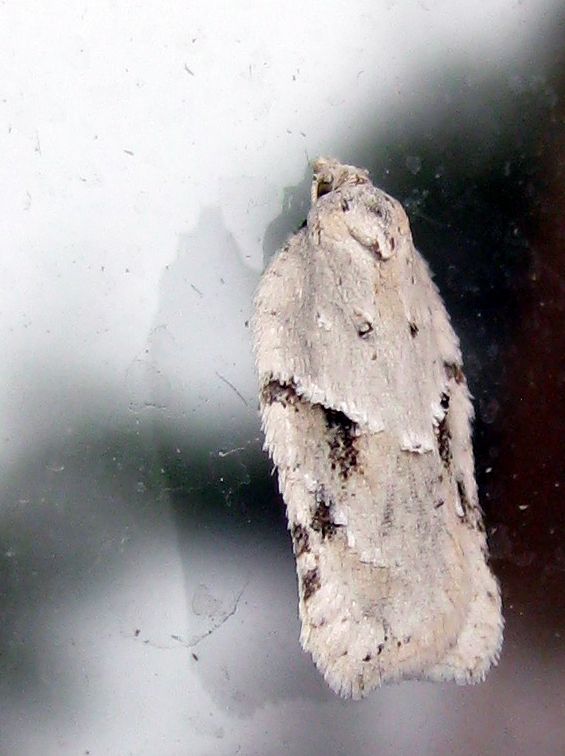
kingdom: Animalia
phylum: Arthropoda
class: Insecta
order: Lepidoptera
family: Tortricidae
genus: Acleris
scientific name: Acleris logiana
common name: Grey birch button
